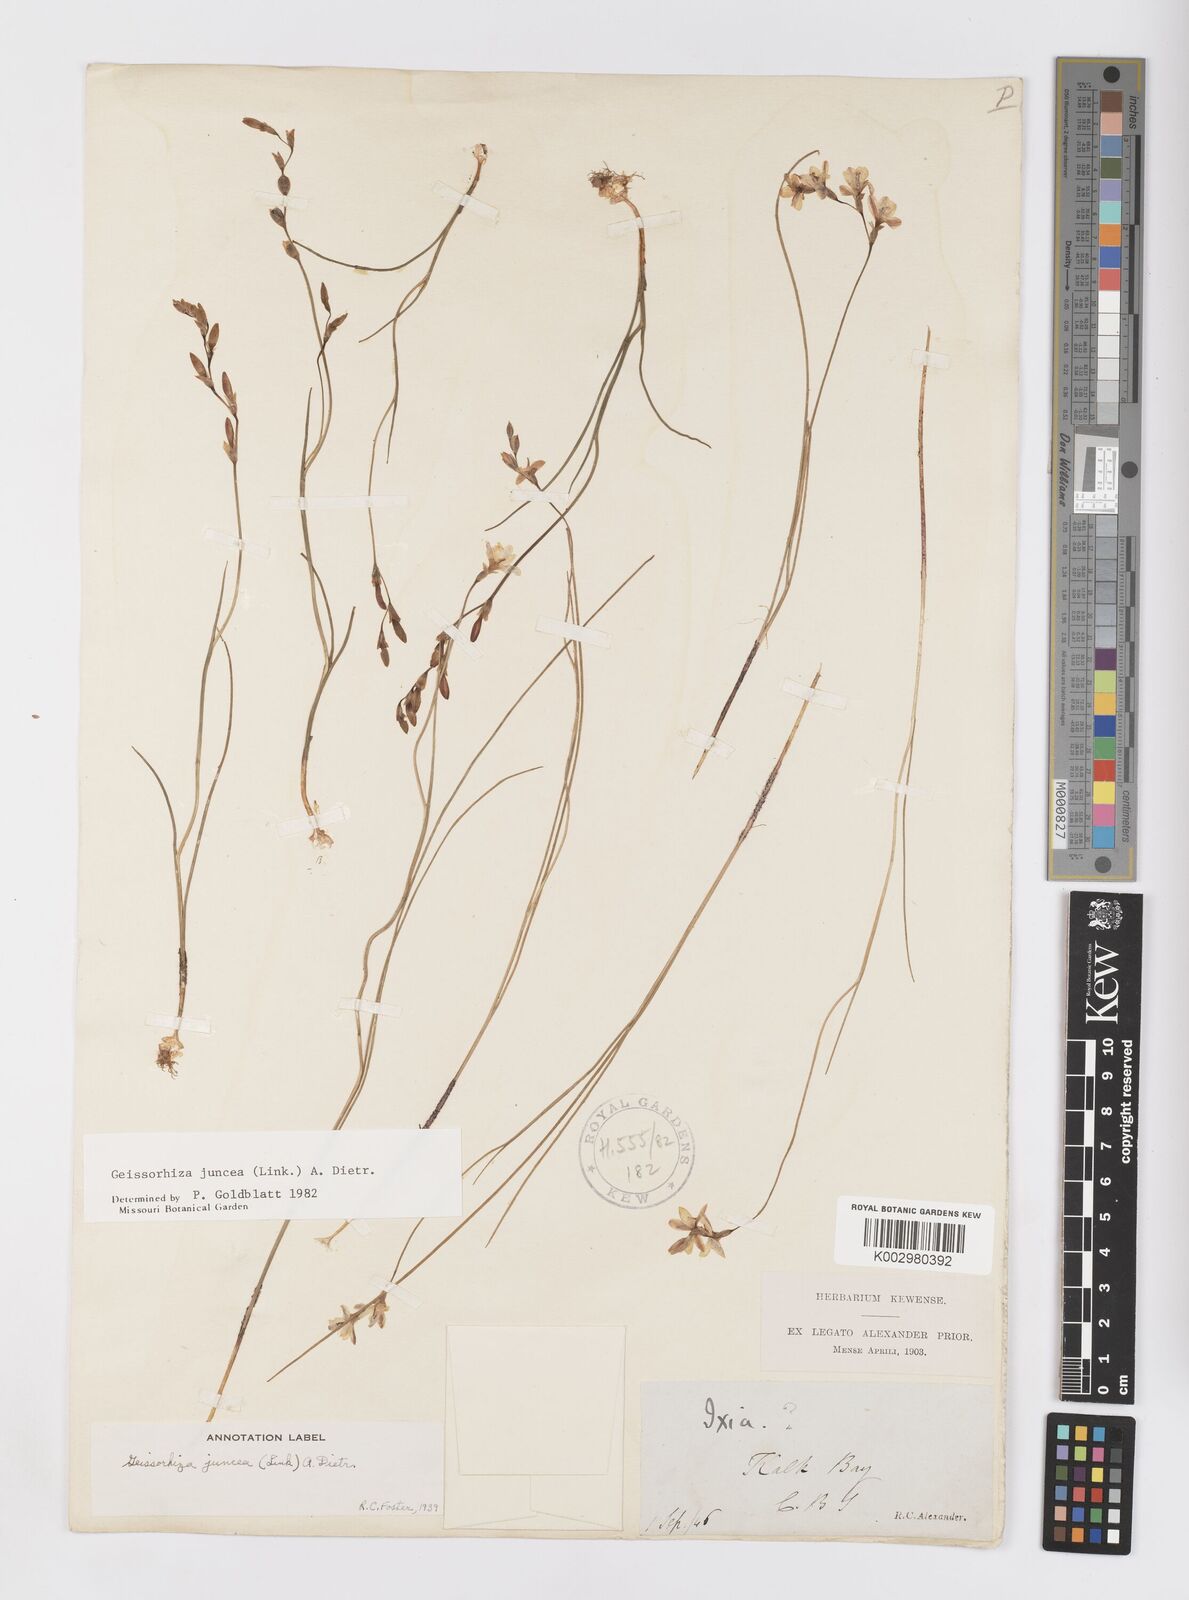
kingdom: Plantae
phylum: Tracheophyta
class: Liliopsida
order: Asparagales
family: Iridaceae
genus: Geissorhiza
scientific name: Geissorhiza juncea
